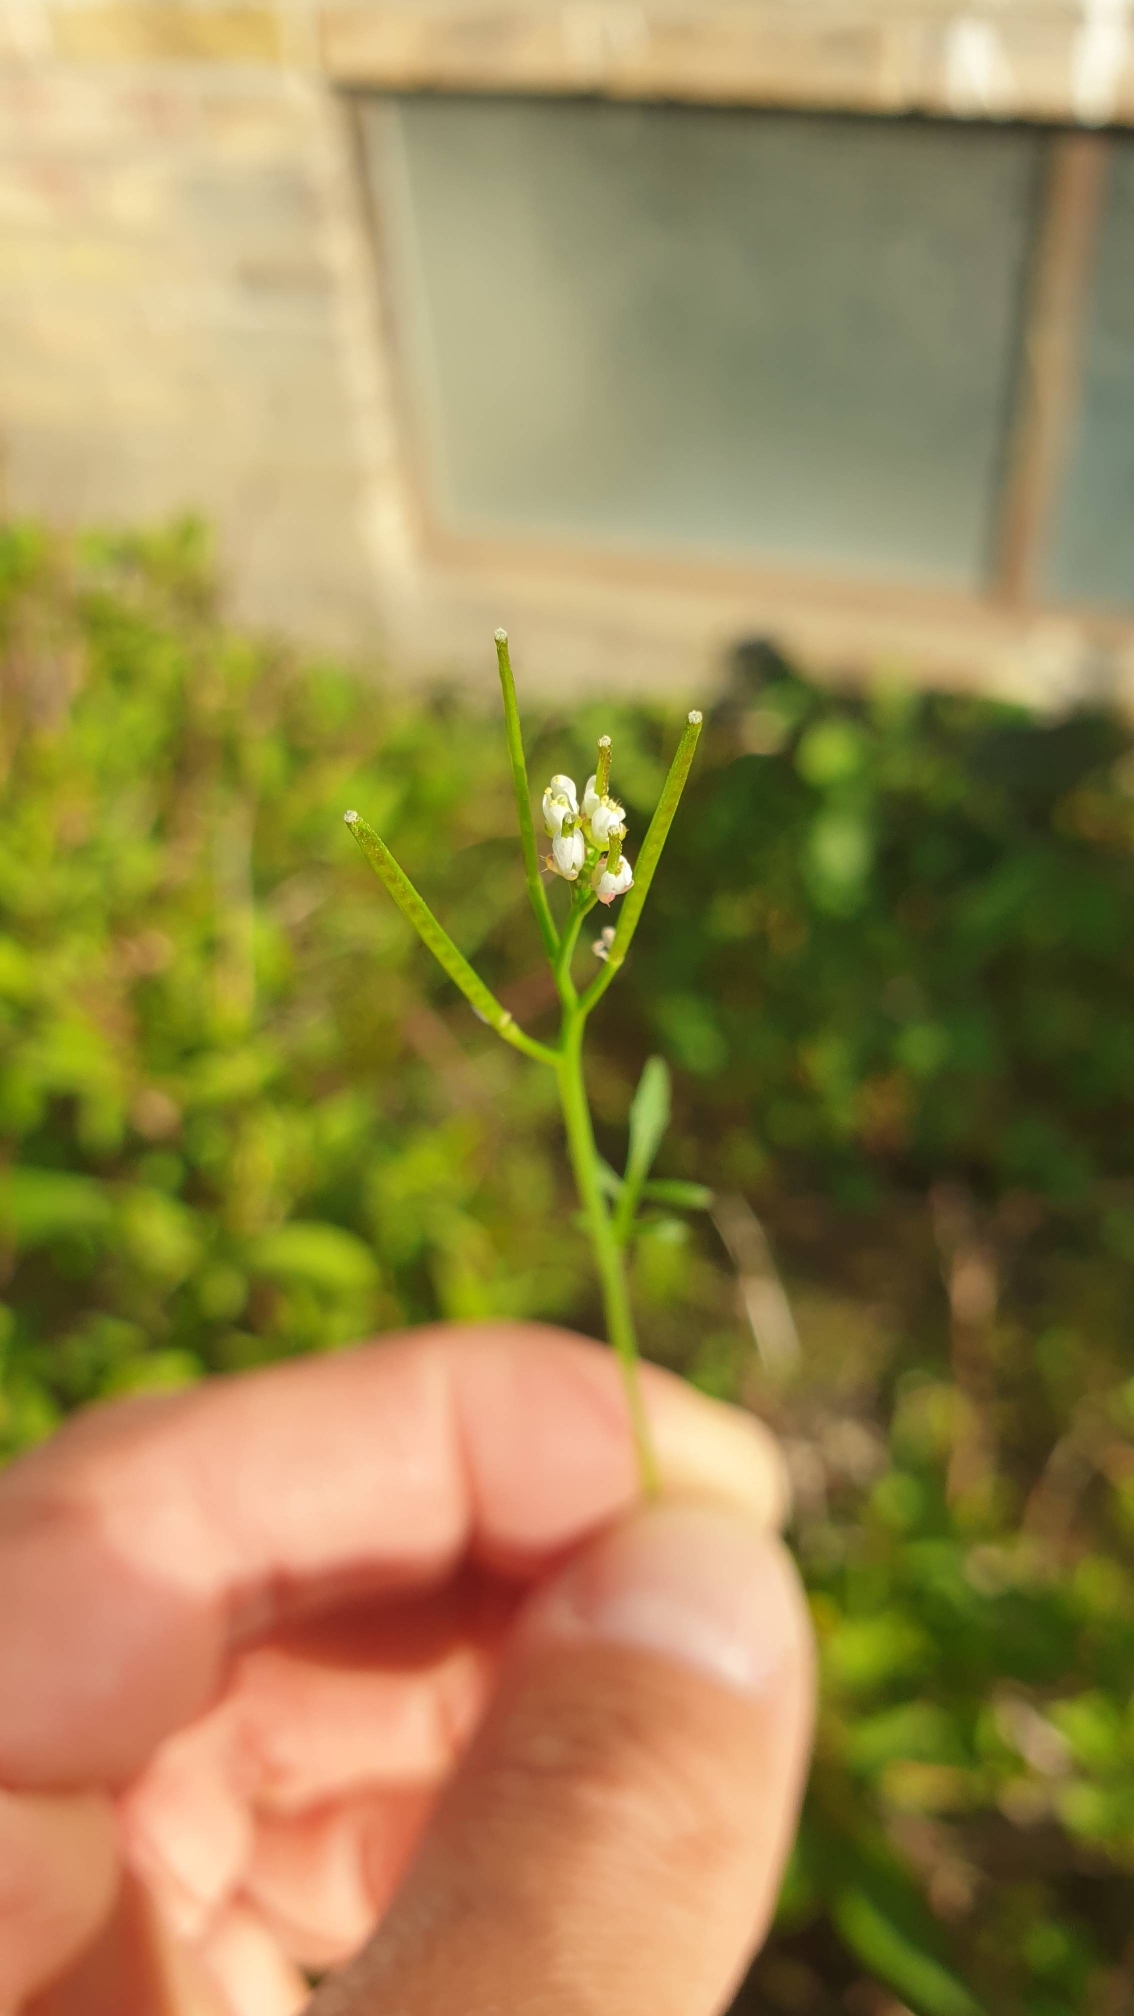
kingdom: Plantae
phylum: Tracheophyta
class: Magnoliopsida
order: Brassicales
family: Brassicaceae
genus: Cardamine
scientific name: Cardamine hirsuta
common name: Roset-springklap
